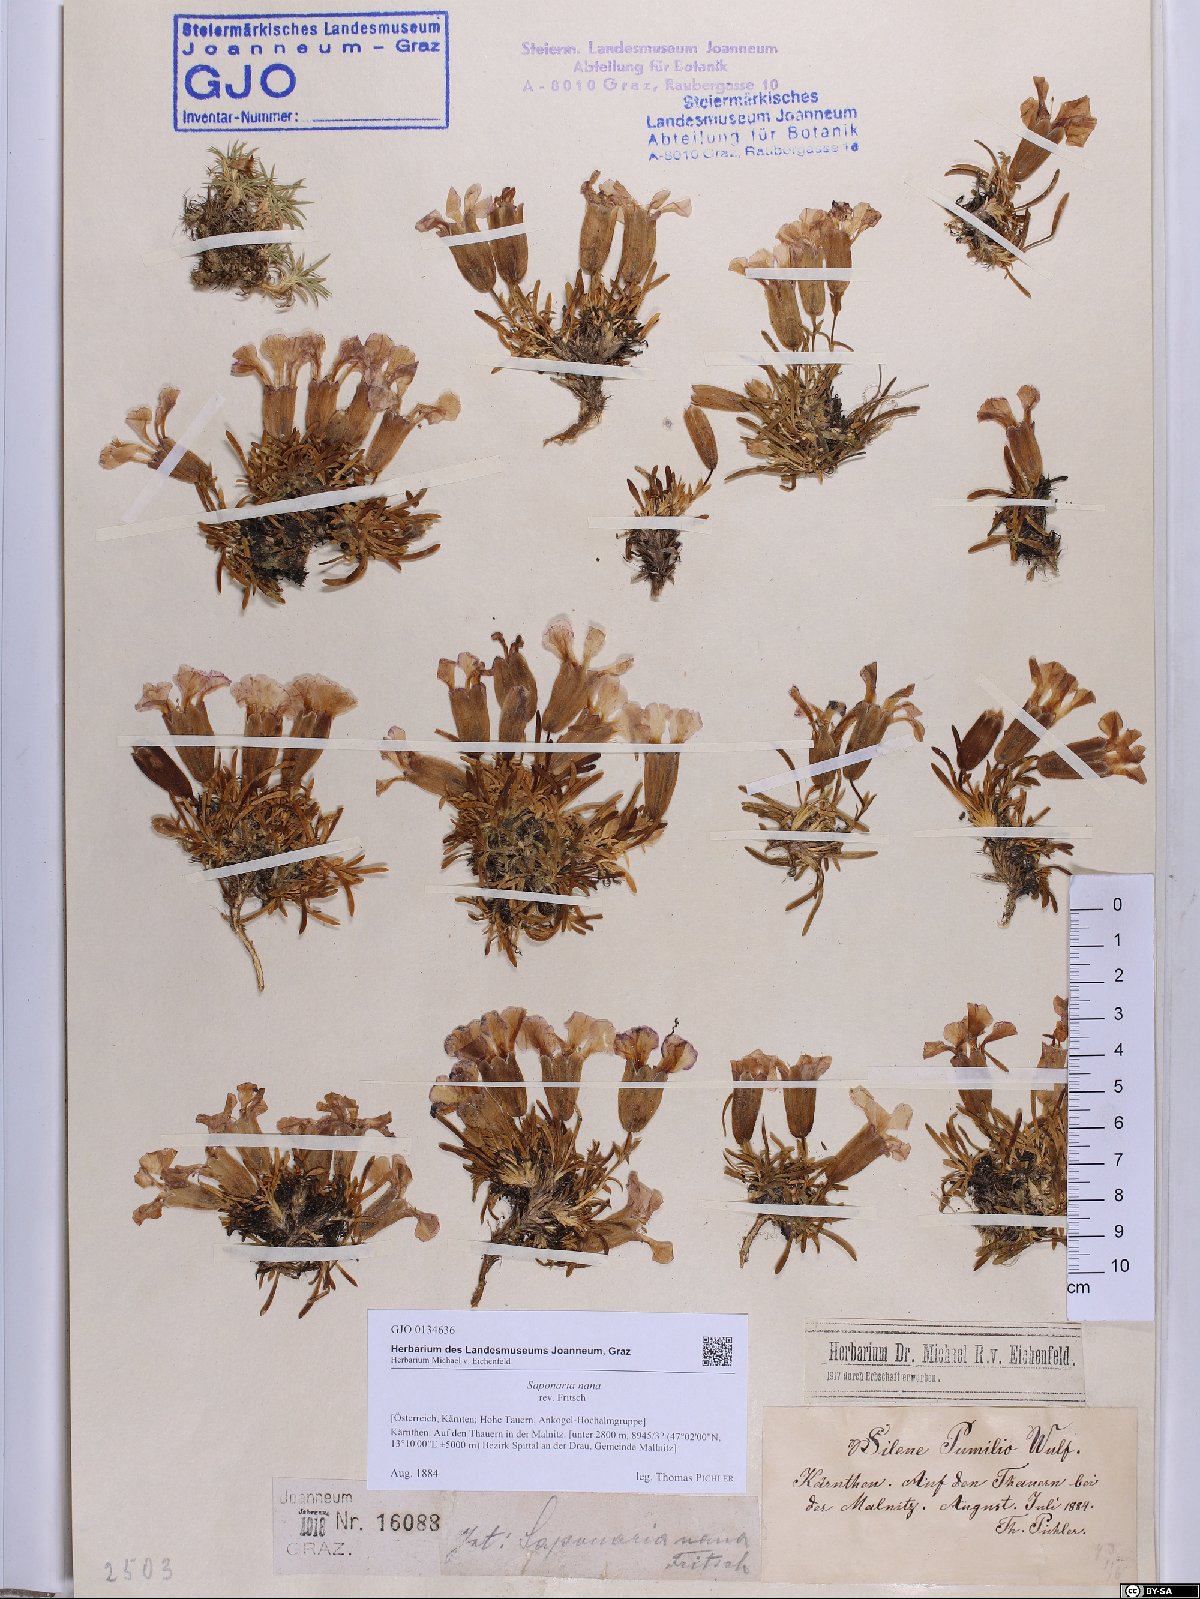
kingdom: Plantae
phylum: Tracheophyta
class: Magnoliopsida
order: Caryophyllales
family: Caryophyllaceae
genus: Saponaria
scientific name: Saponaria pumila
